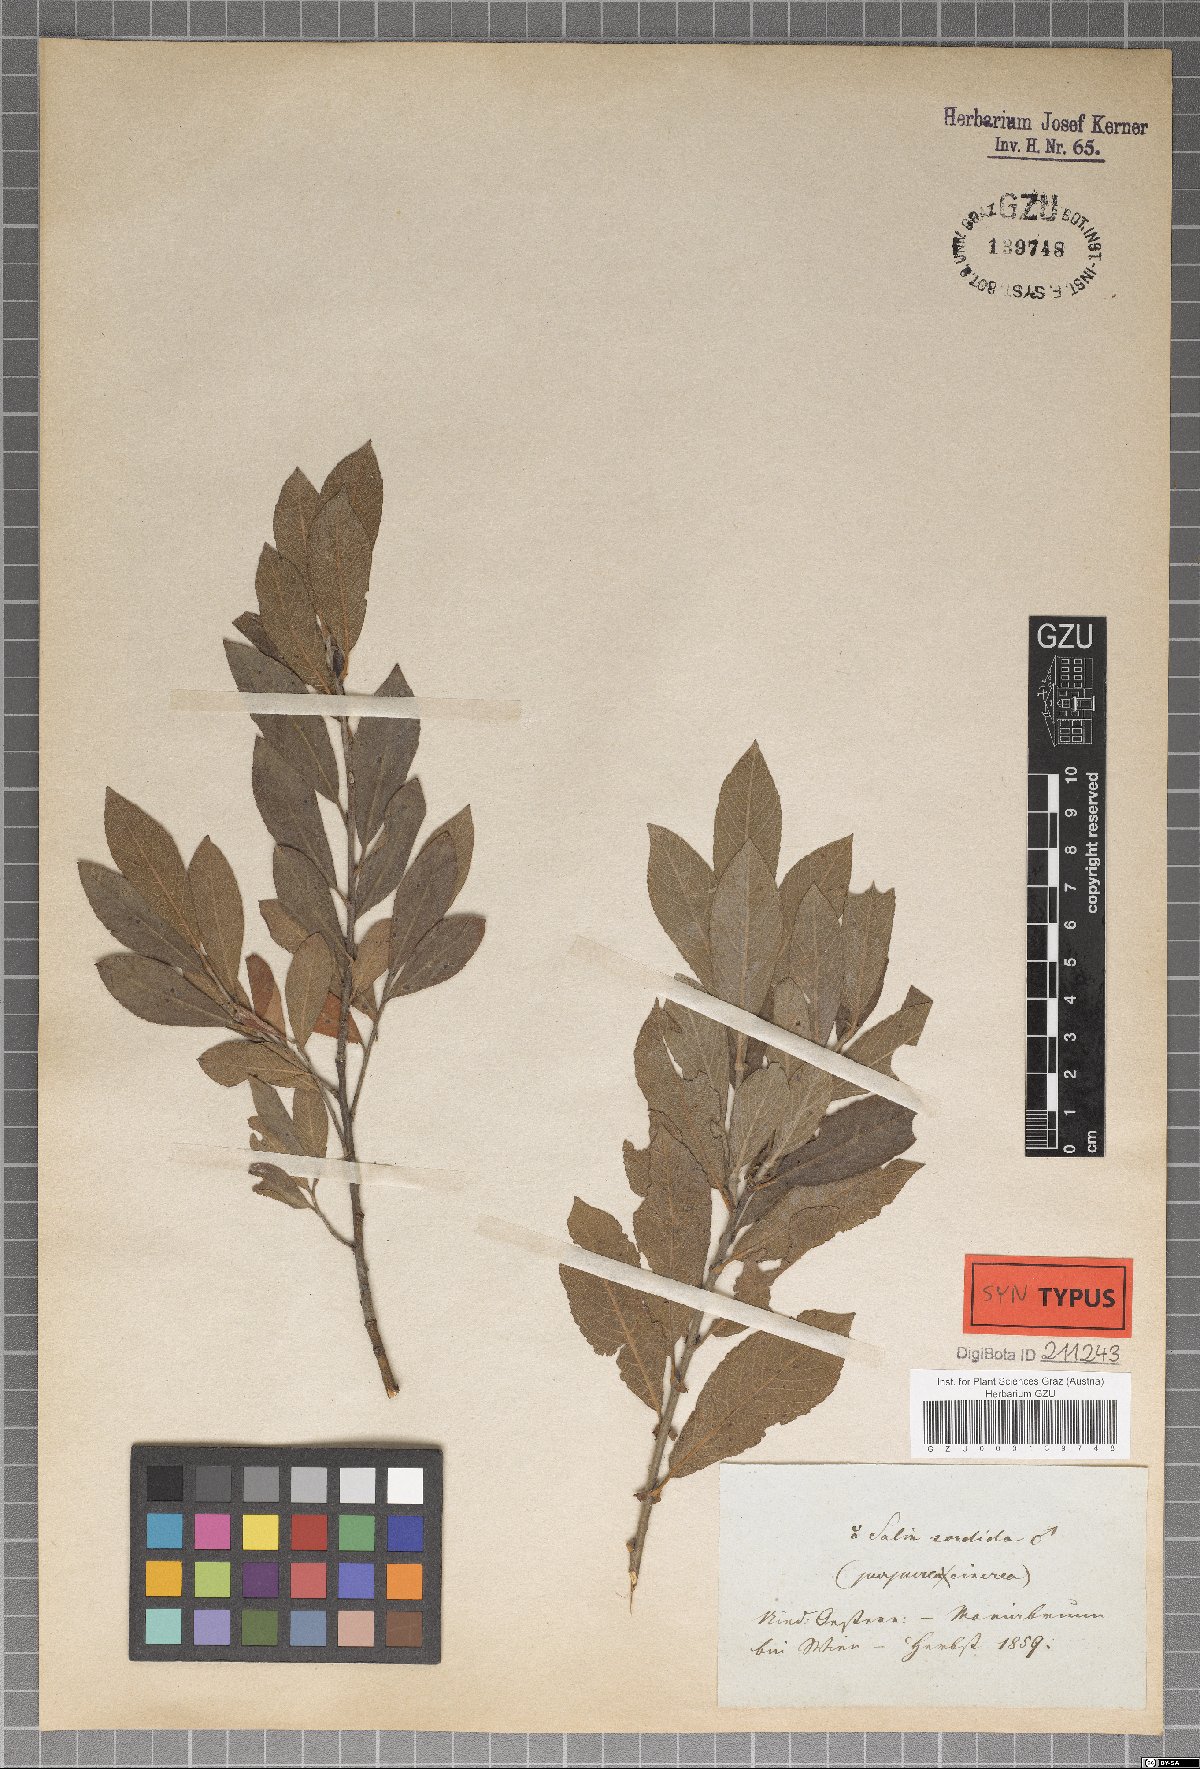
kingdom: Plantae
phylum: Tracheophyta
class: Magnoliopsida
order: Malpighiales
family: Salicaceae
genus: Salix
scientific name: Salix sordida
